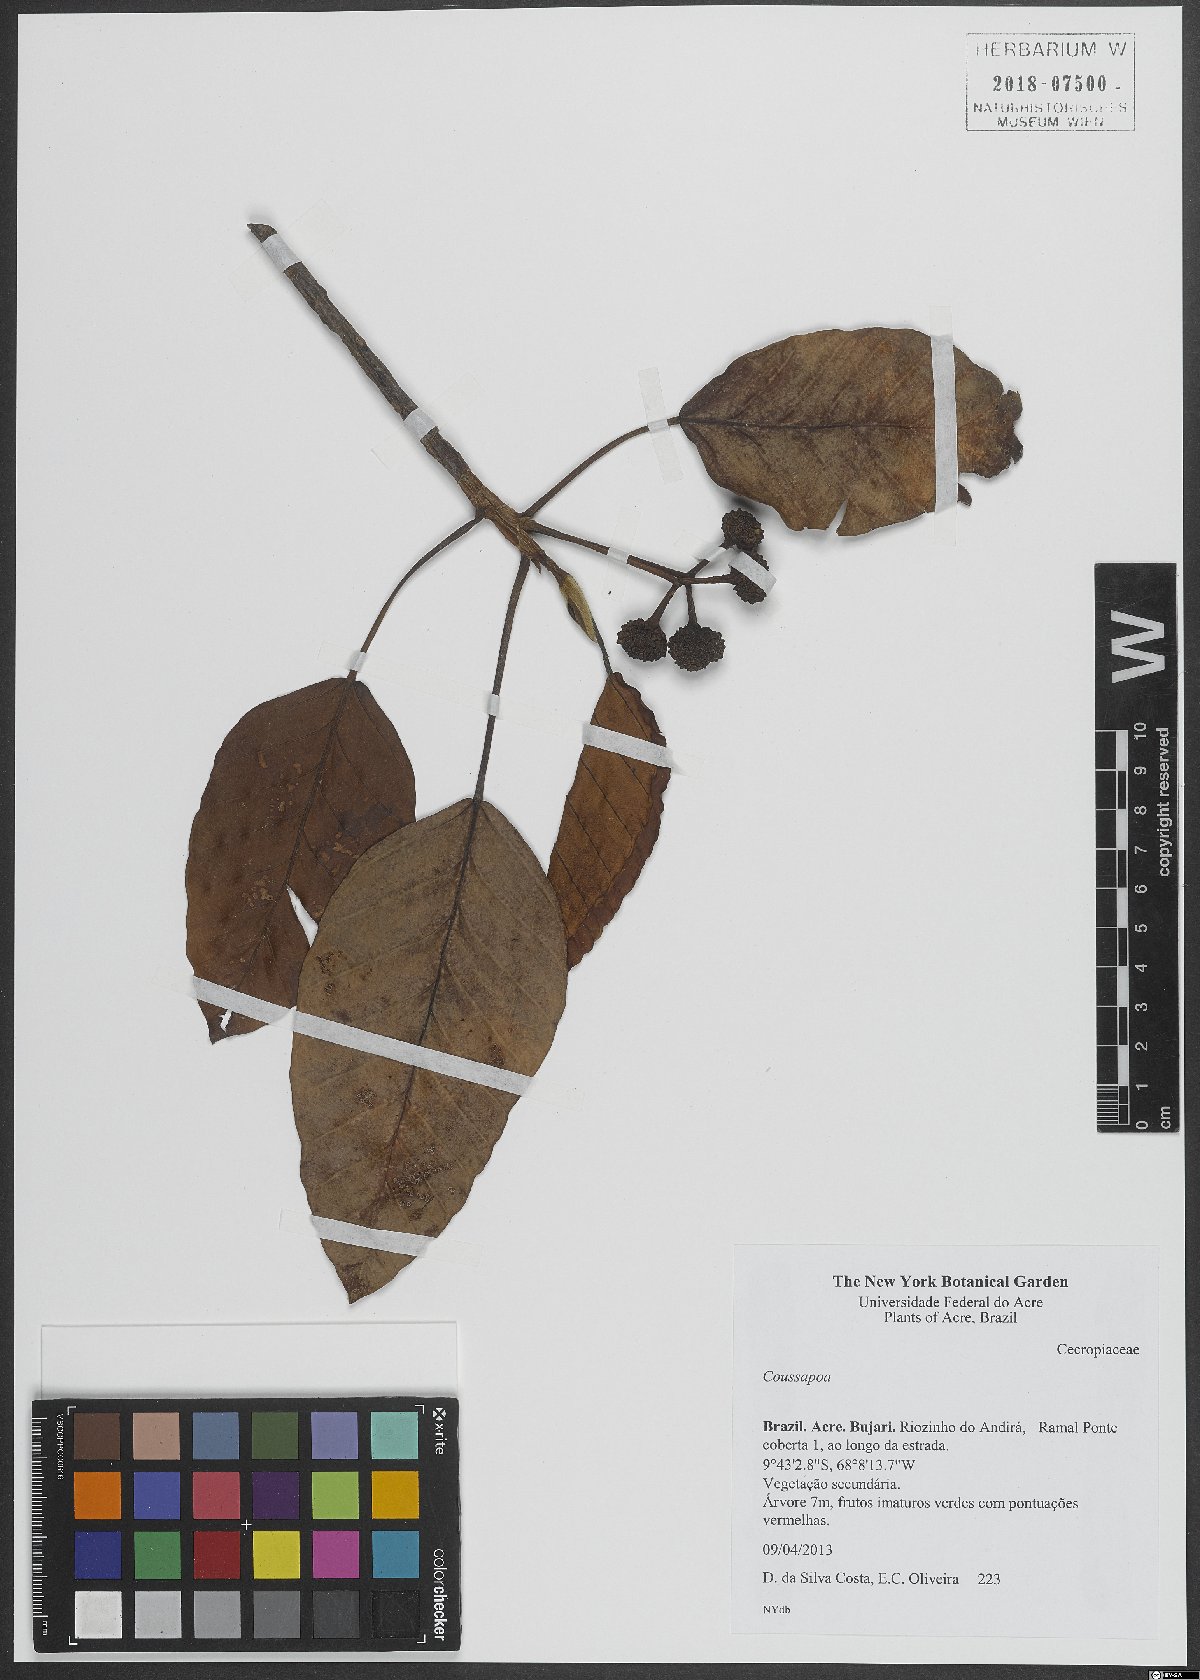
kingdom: Plantae
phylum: Tracheophyta
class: Magnoliopsida
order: Rosales
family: Urticaceae
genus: Coussapoa
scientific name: Coussapoa
